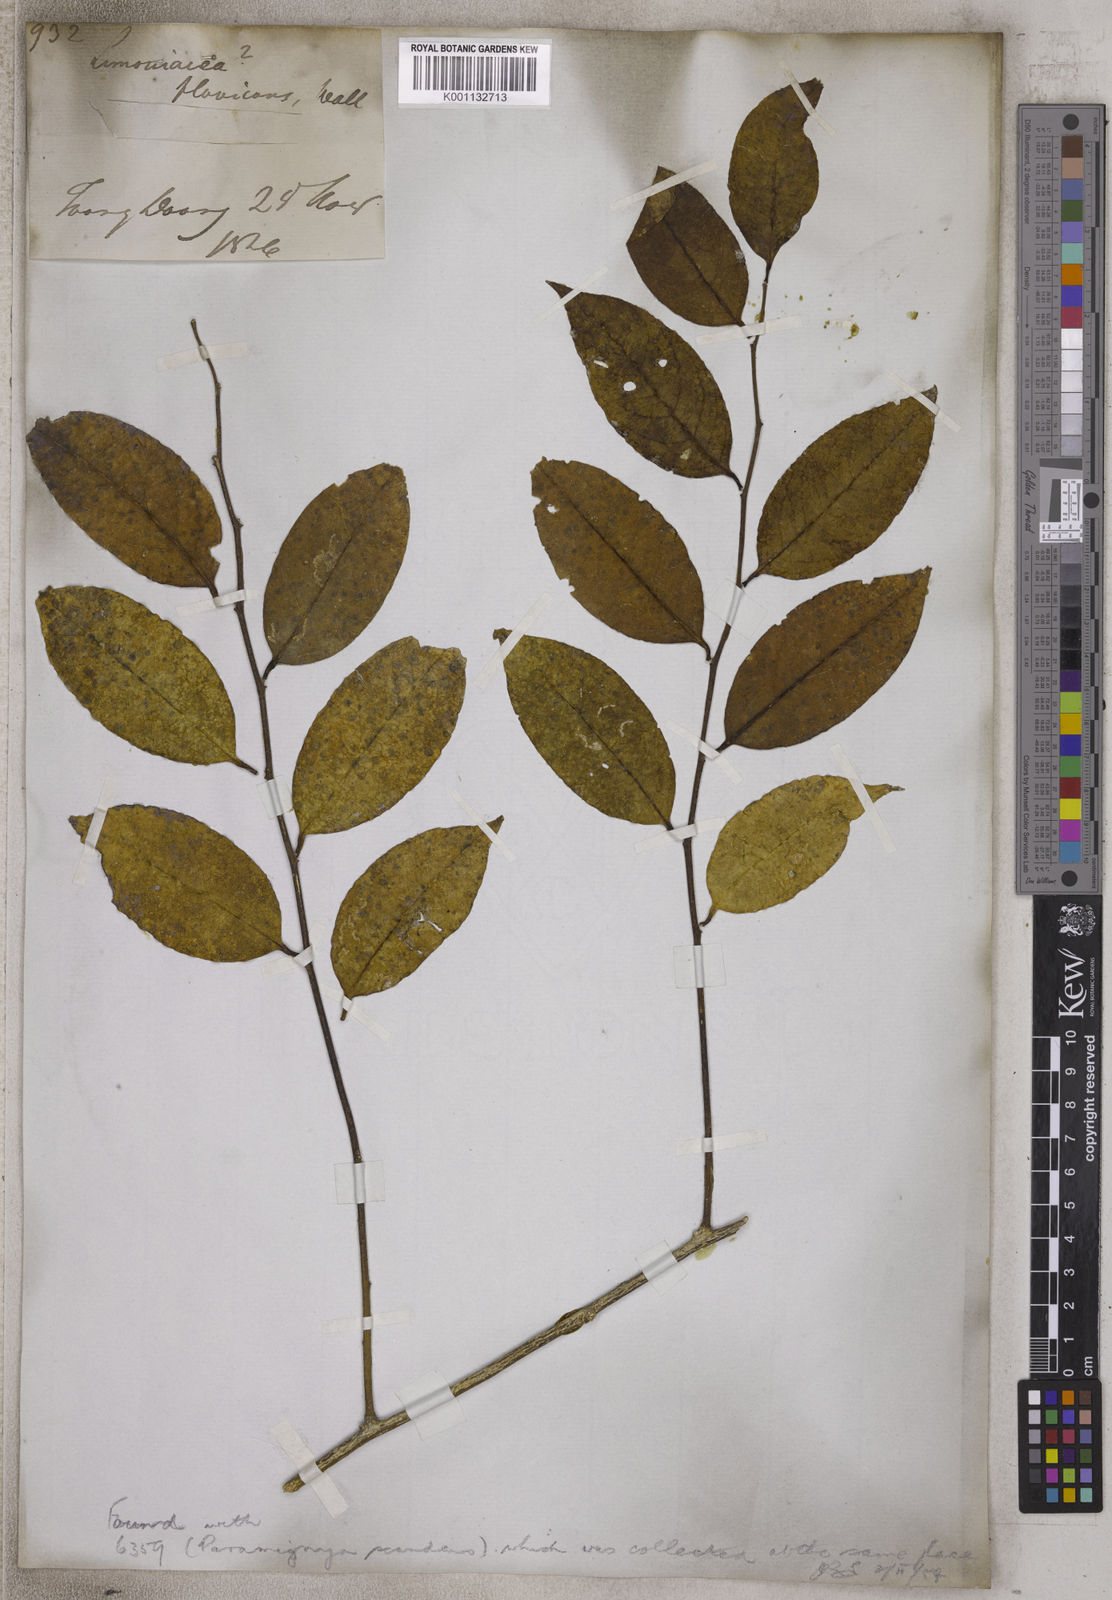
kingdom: Plantae
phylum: Tracheophyta
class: Magnoliopsida
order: Sapindales
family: Rutaceae
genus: Murraya
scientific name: Murraya lucida
